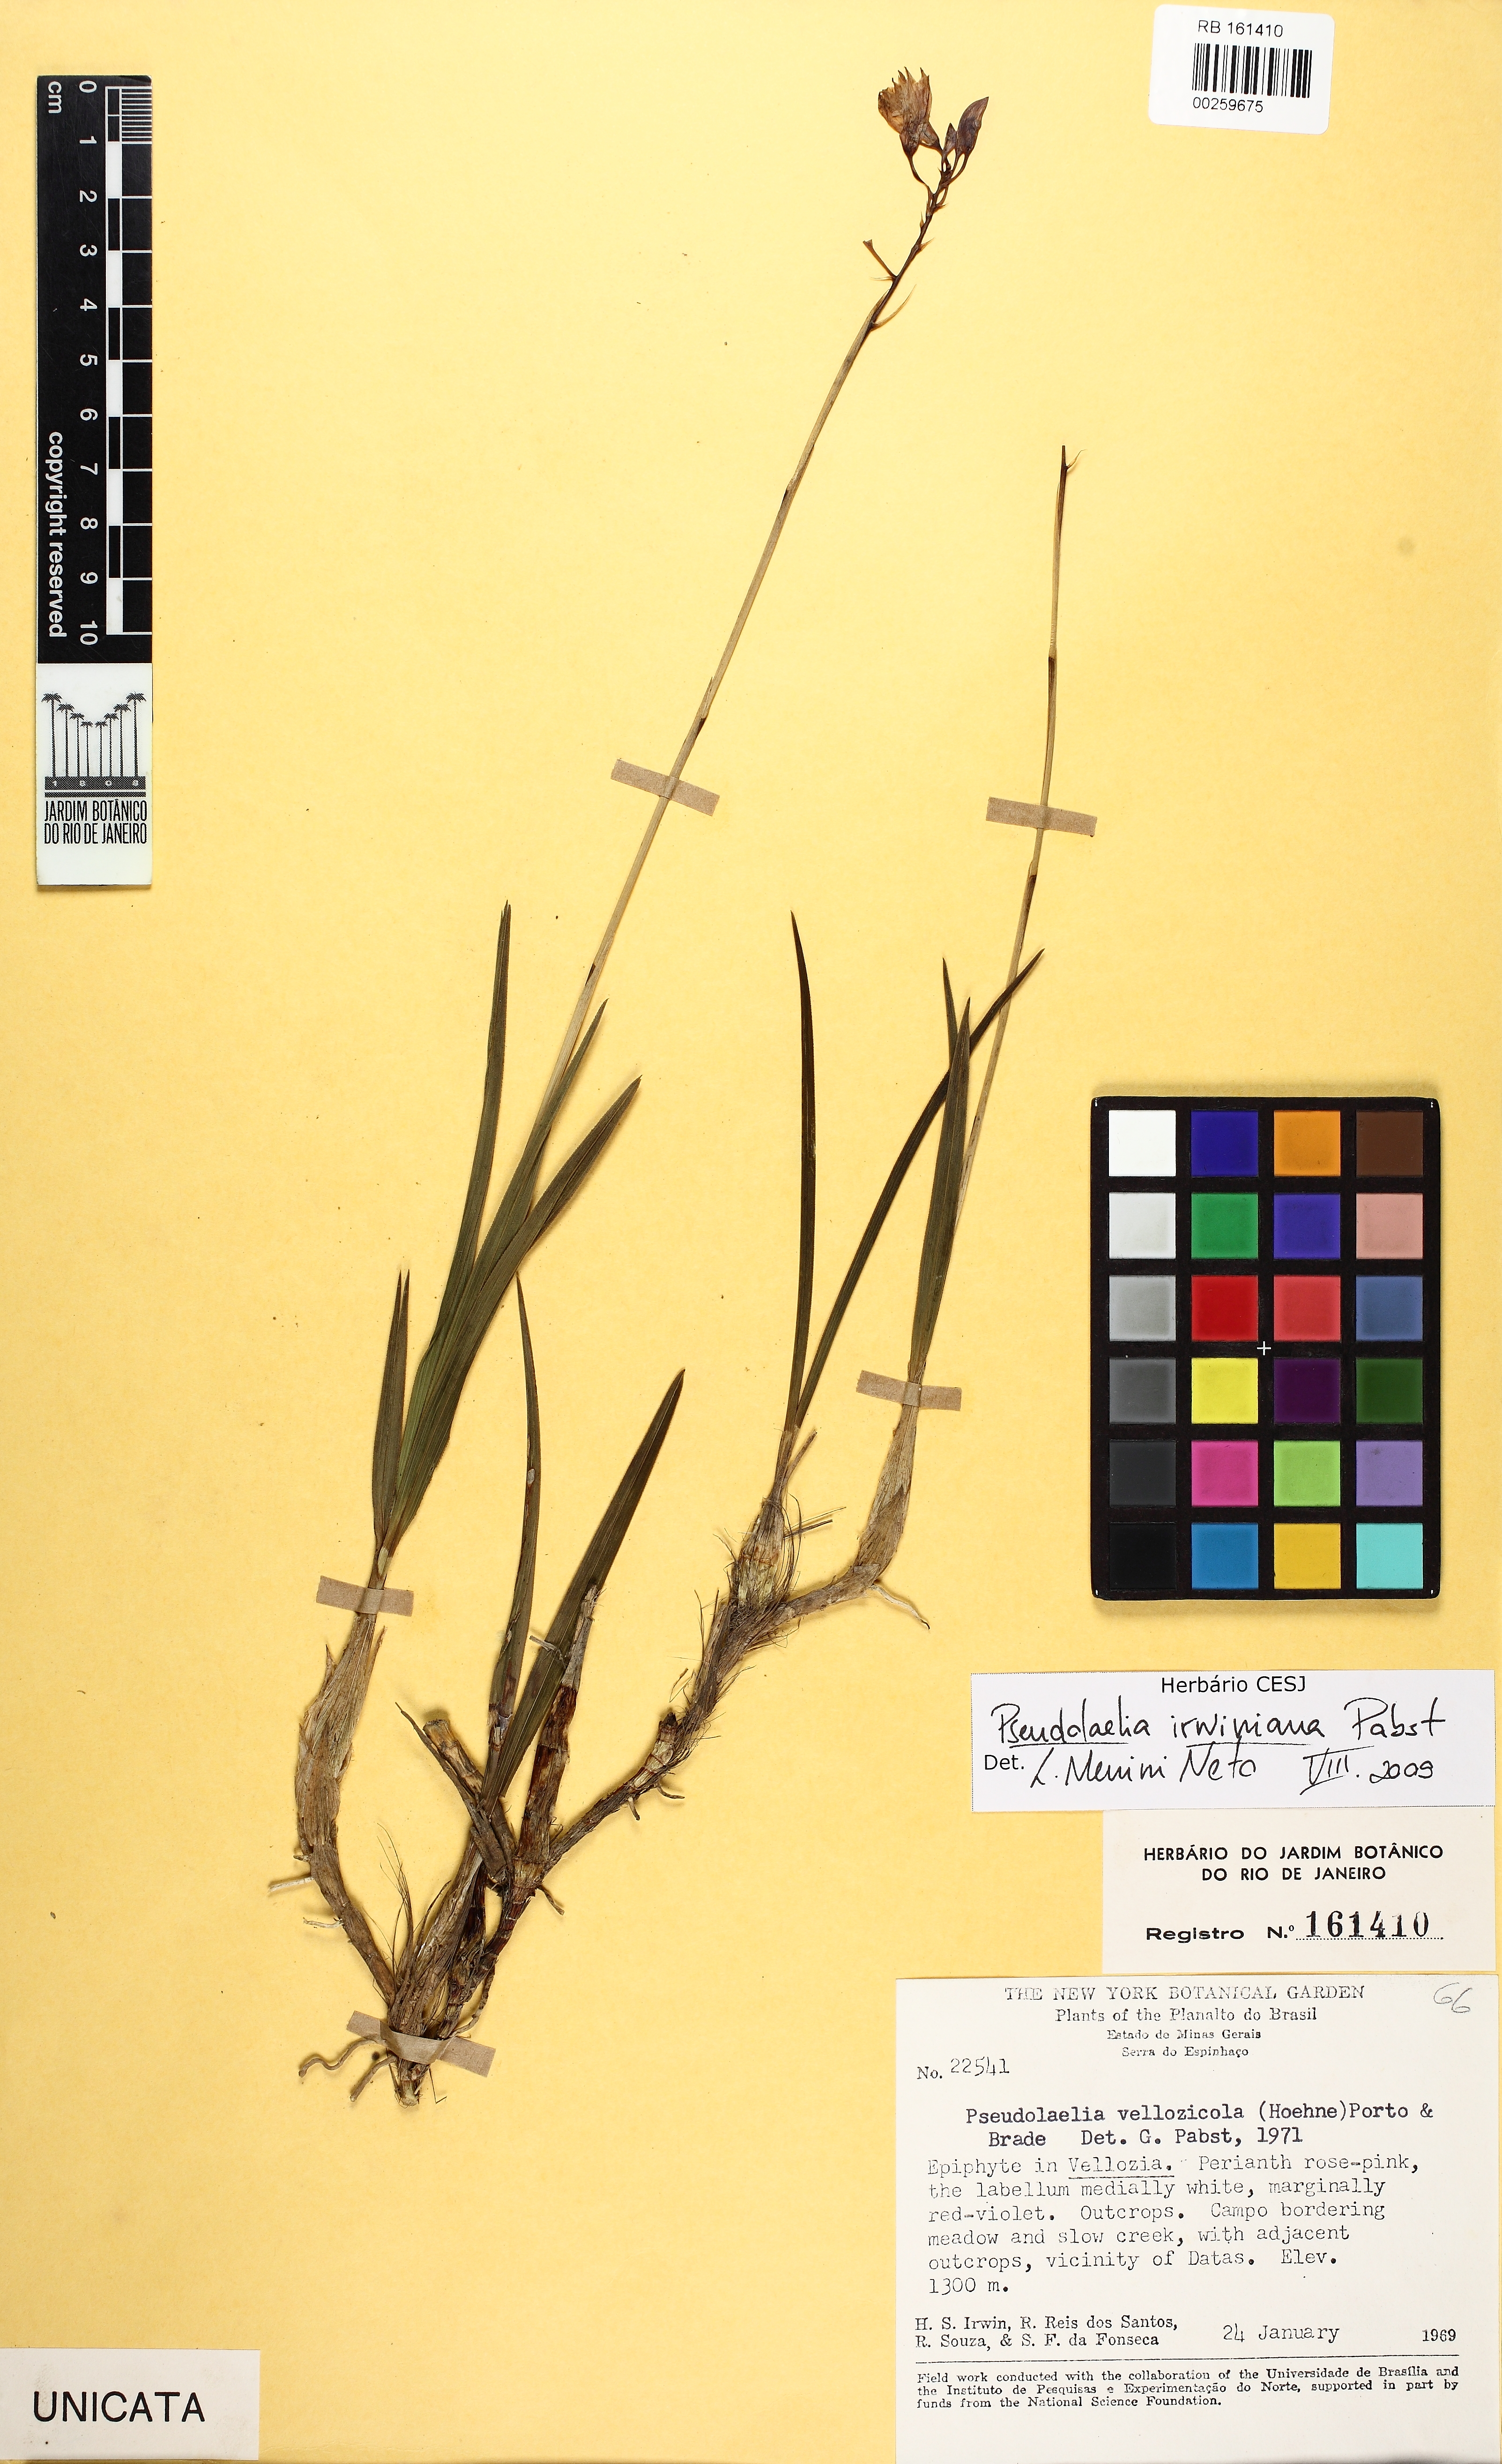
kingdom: Plantae
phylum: Tracheophyta
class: Liliopsida
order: Asparagales
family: Orchidaceae
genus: Pseudolaelia
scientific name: Pseudolaelia irwiniana
